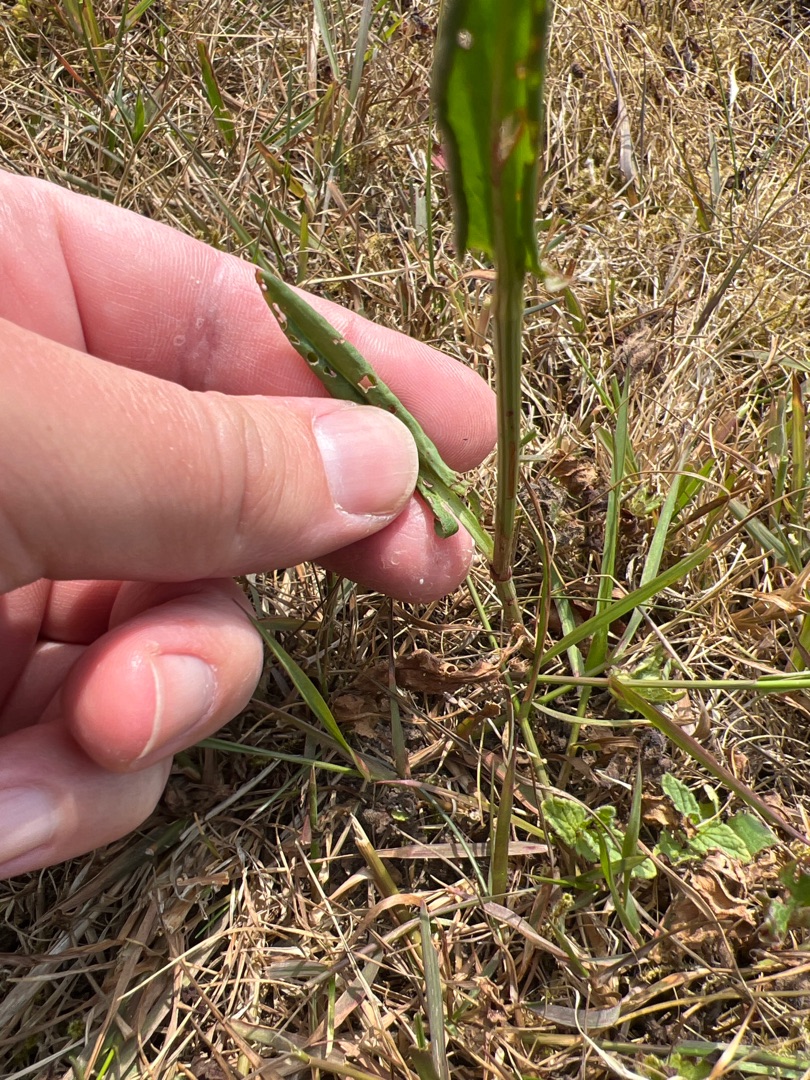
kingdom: Plantae
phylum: Tracheophyta
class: Magnoliopsida
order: Caryophyllales
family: Polygonaceae
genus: Rumex
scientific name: Rumex acetosa
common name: Almindelig syre
